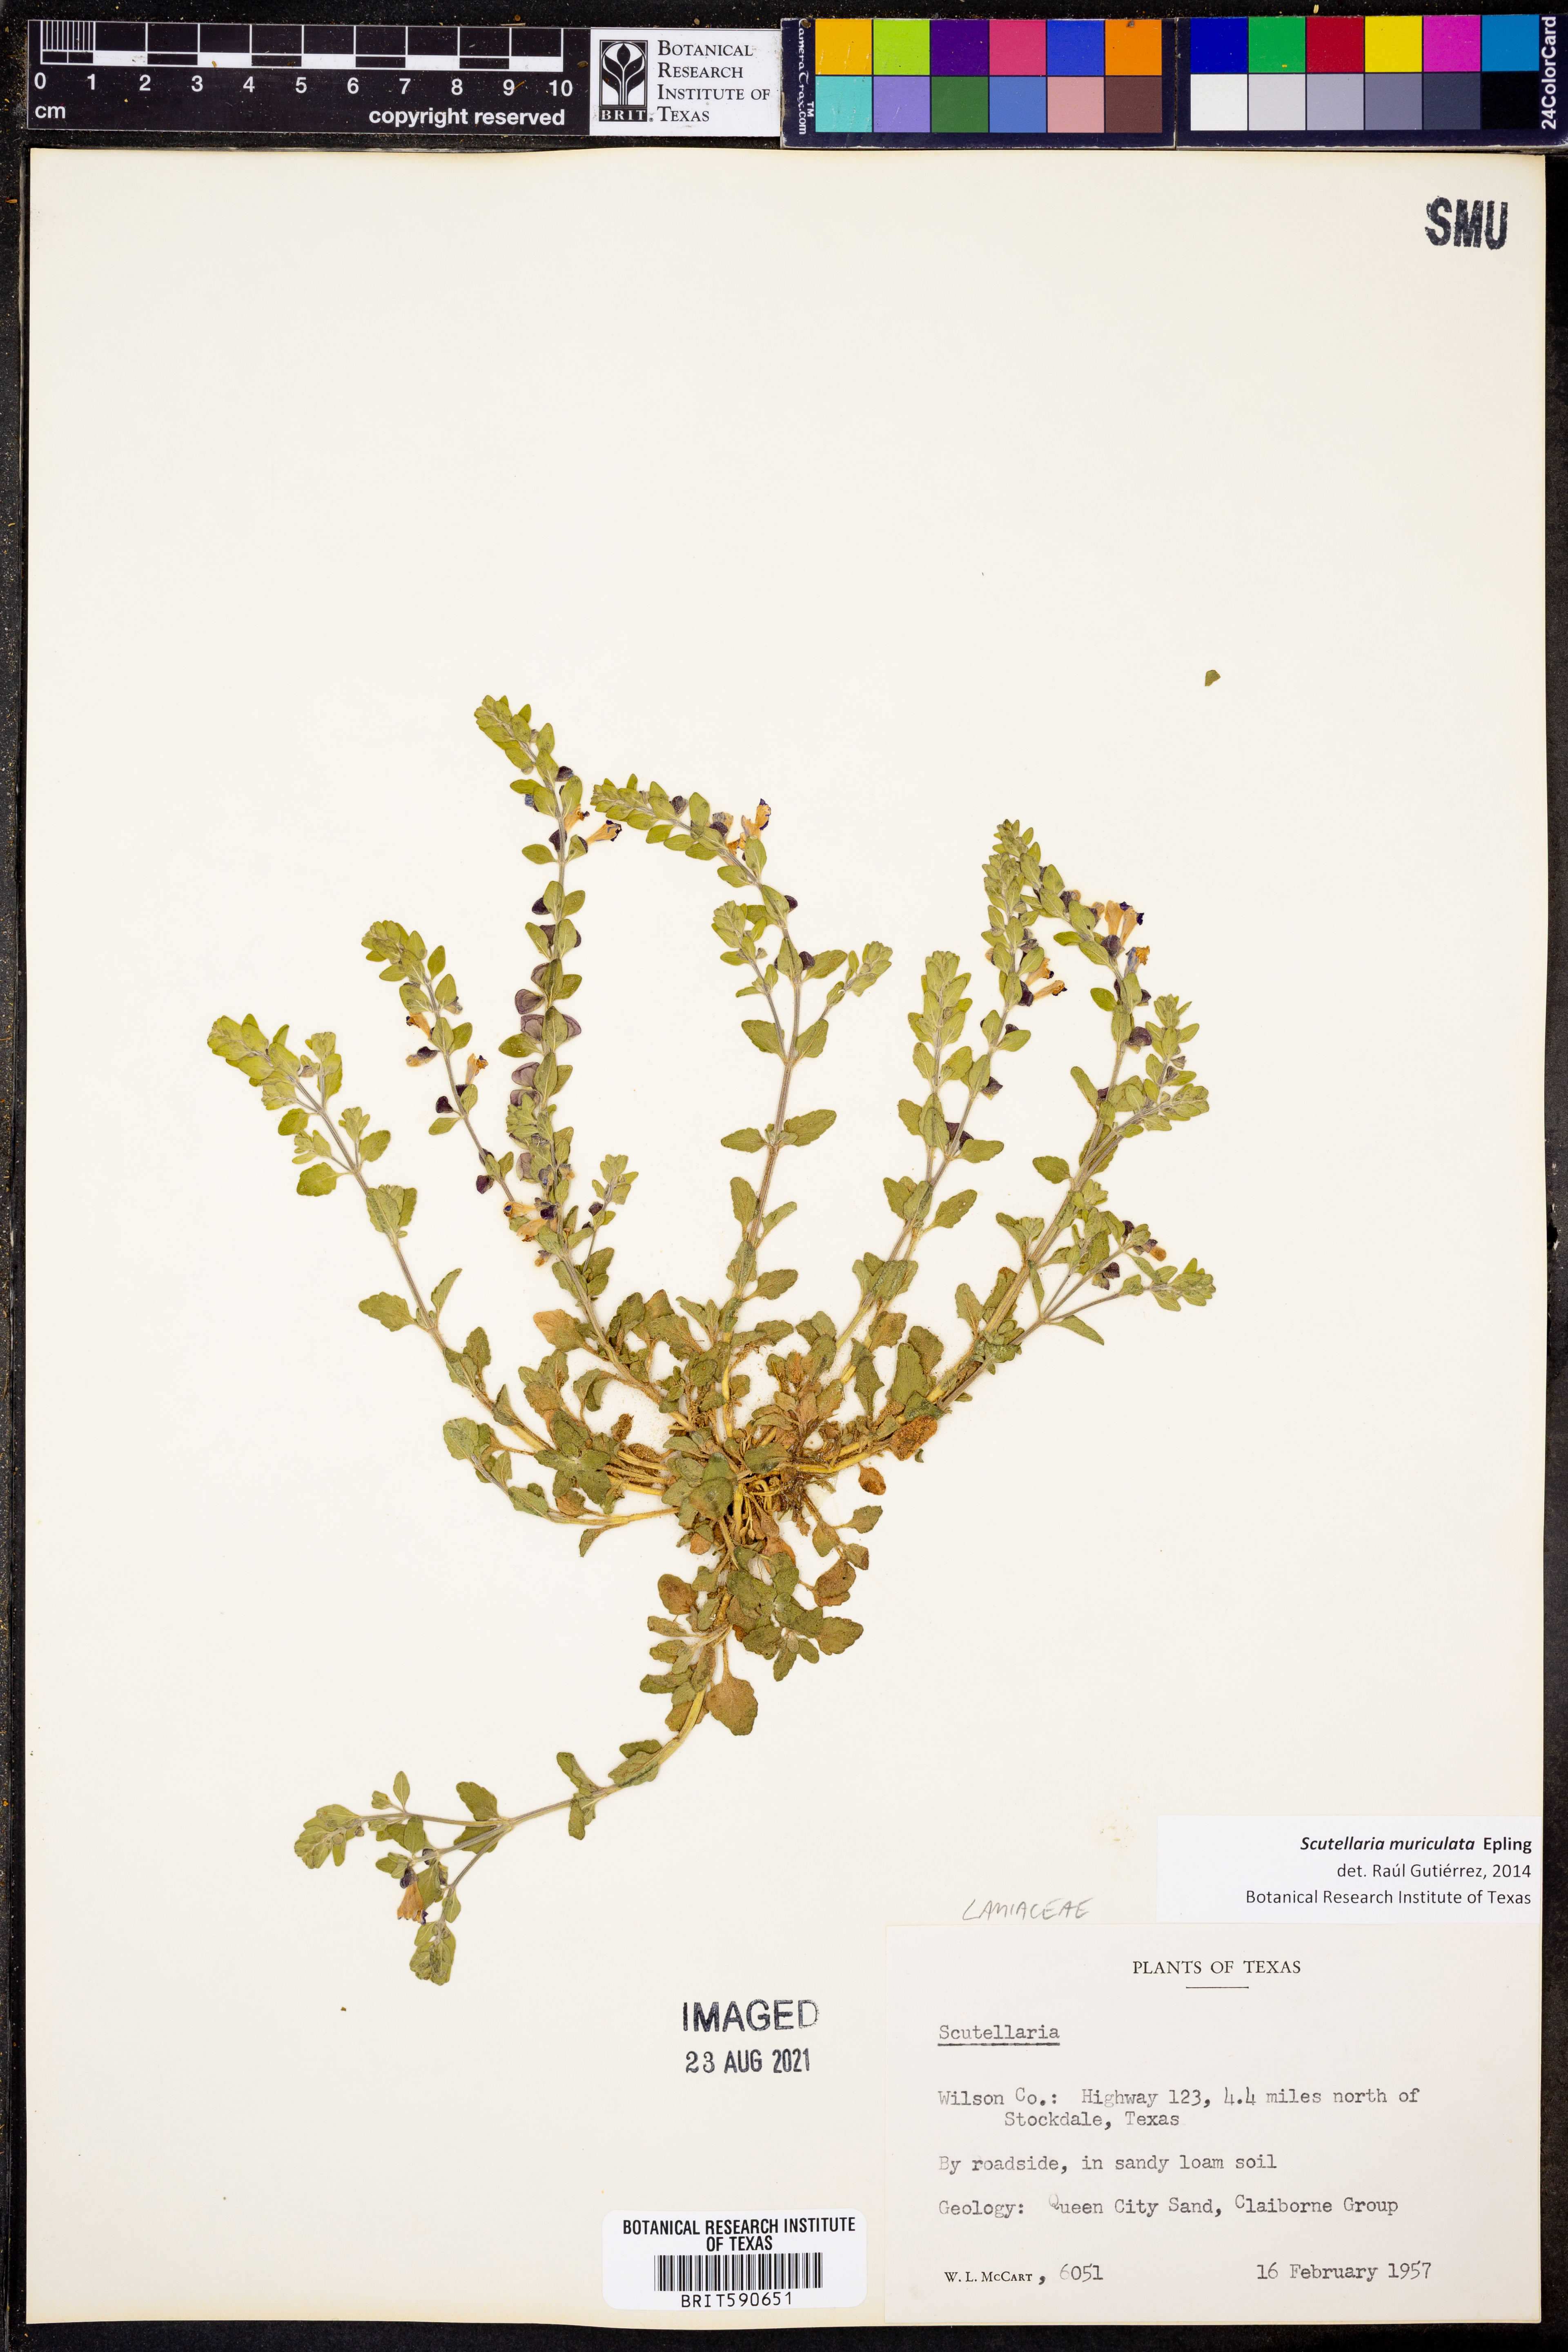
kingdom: Plantae
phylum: Tracheophyta
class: Magnoliopsida
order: Lamiales
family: Lamiaceae
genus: Scutellaria
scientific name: Scutellaria muriculata
